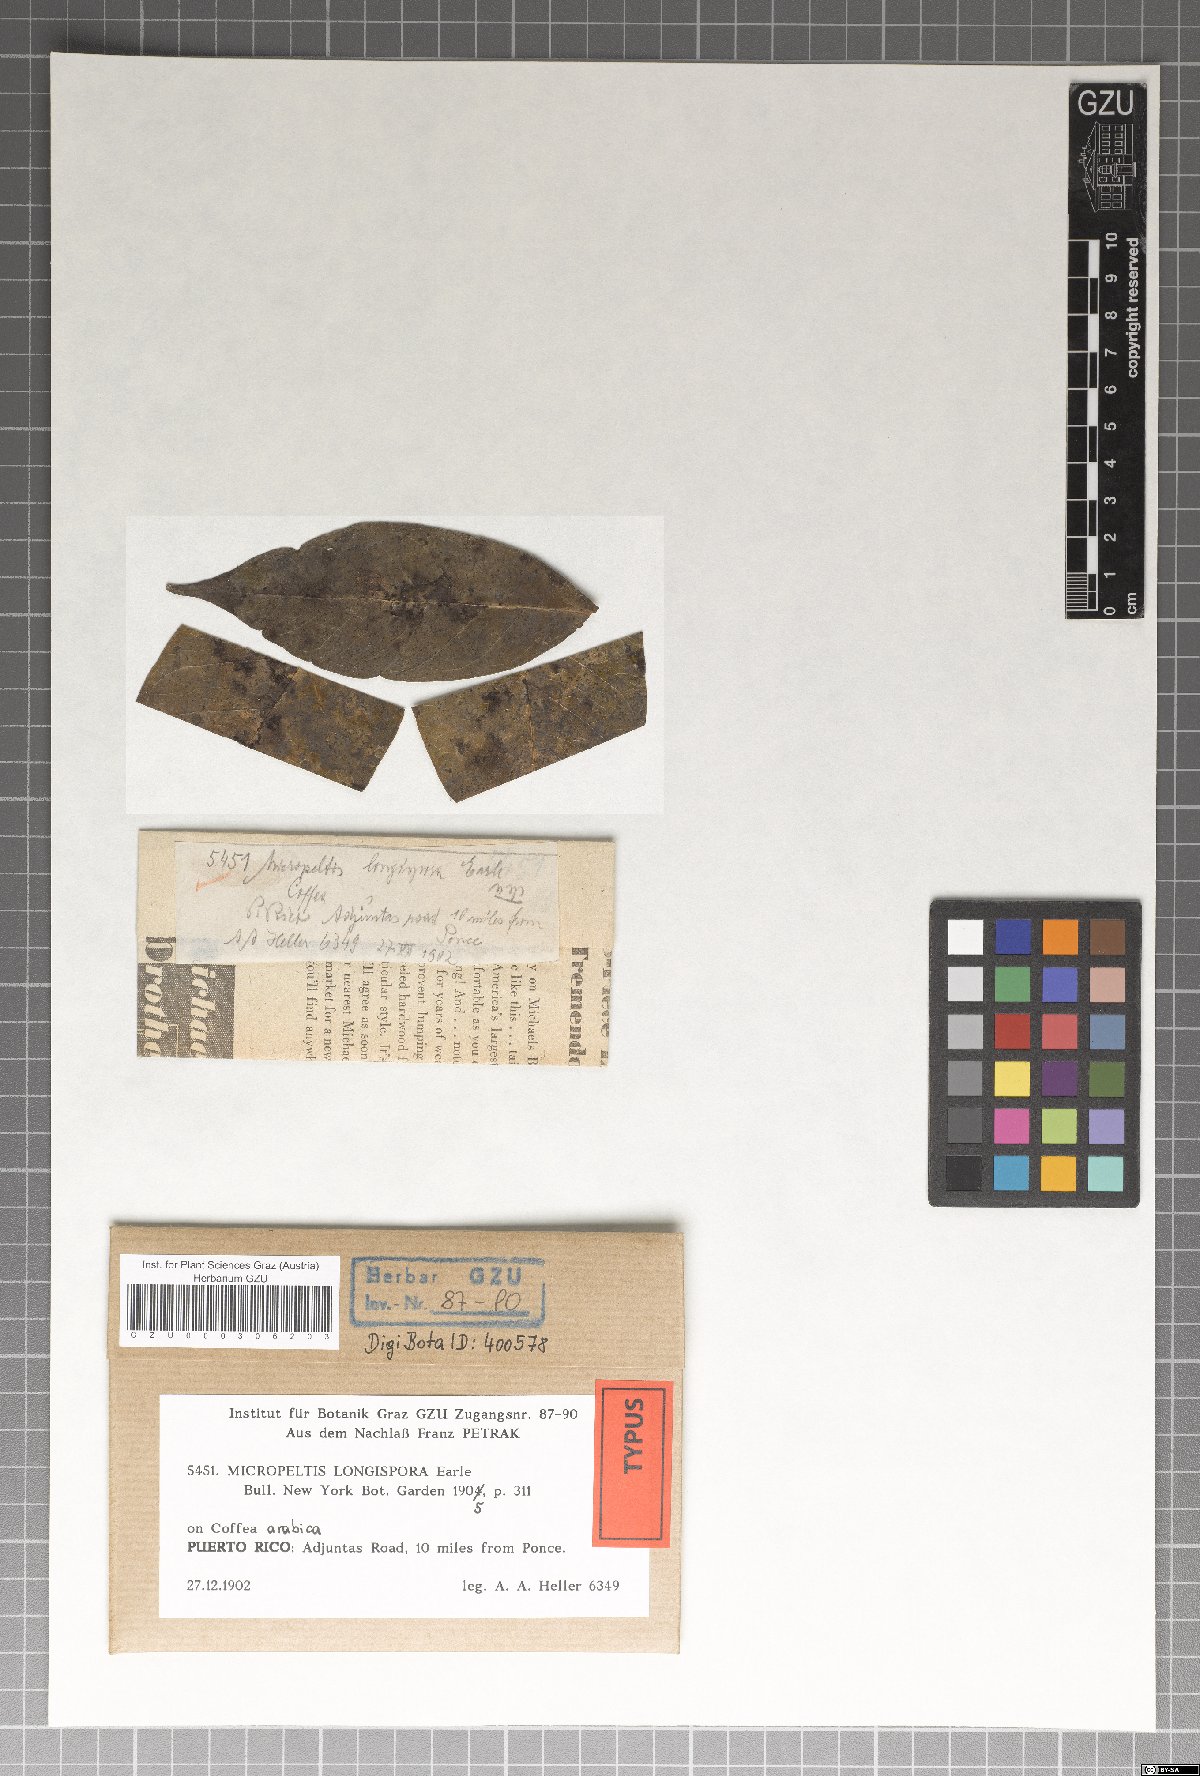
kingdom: Fungi
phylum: Ascomycota
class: Dothideomycetes
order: Microthyriales
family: Micropeltidaceae
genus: Micropeltis
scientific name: Micropeltis longispora
